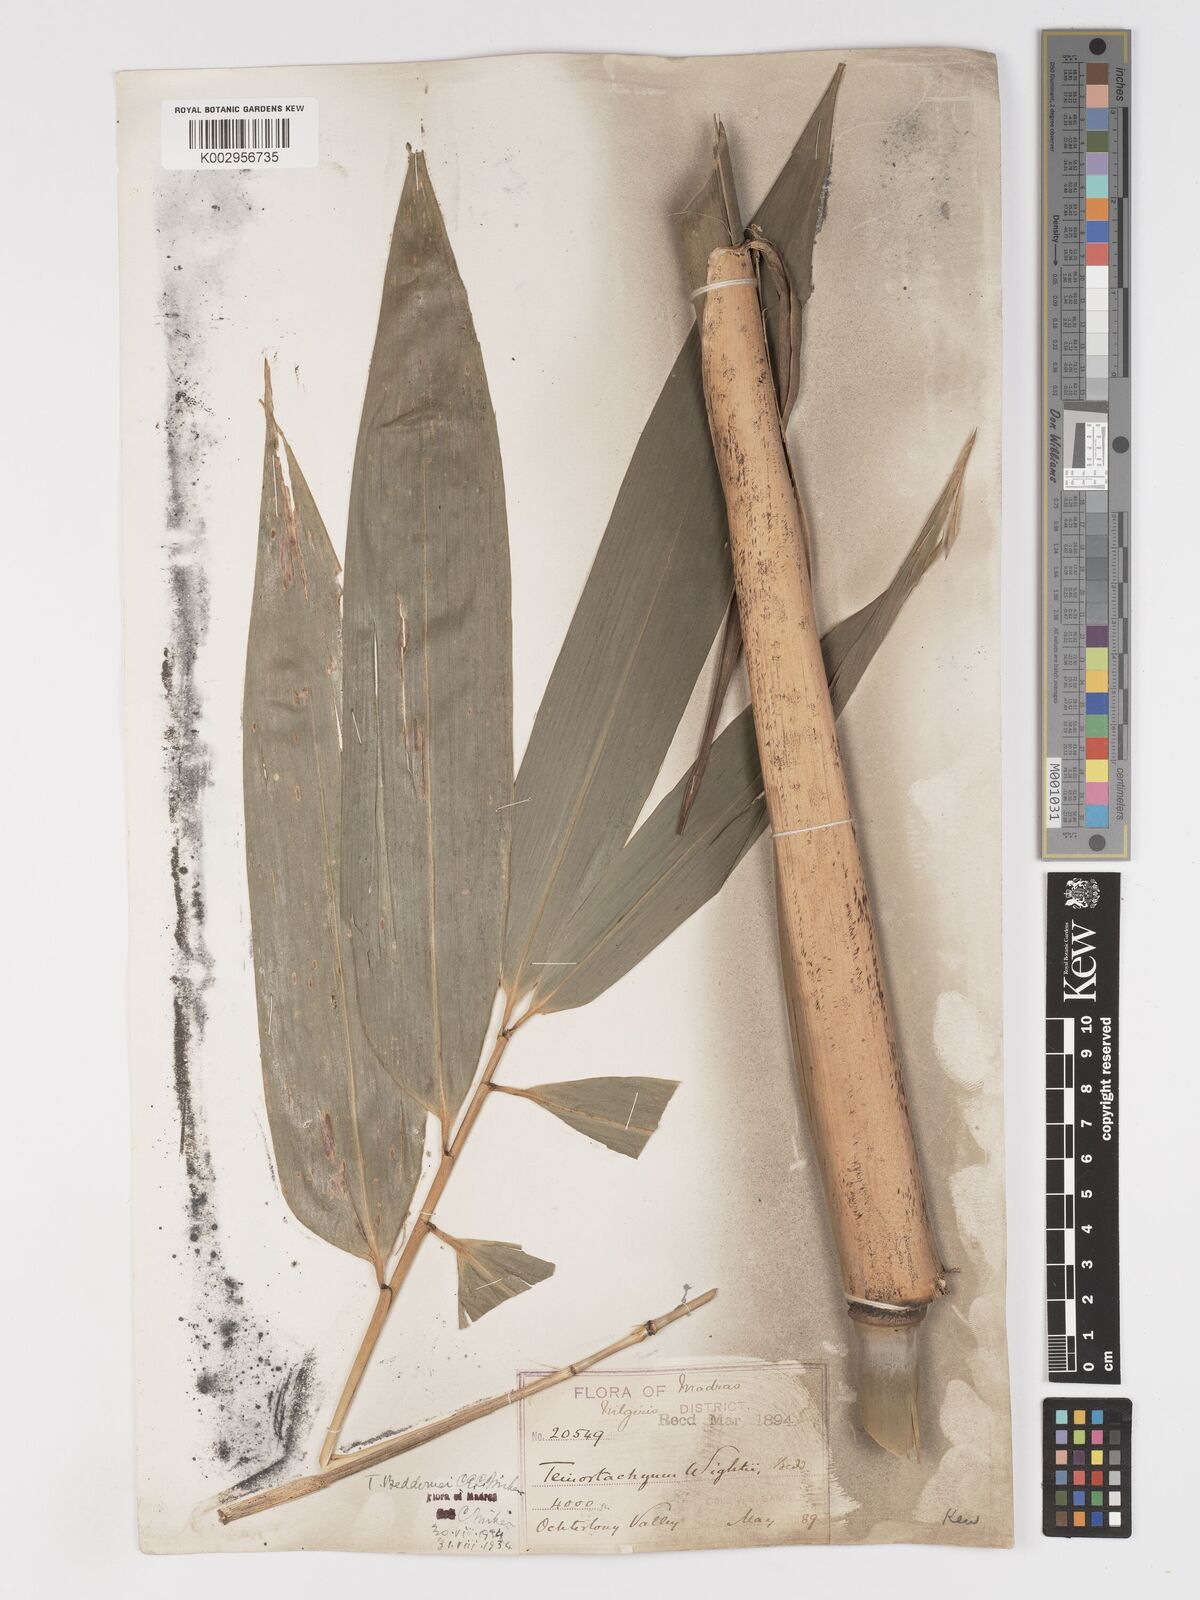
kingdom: Plantae
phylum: Tracheophyta
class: Liliopsida
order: Poales
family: Poaceae
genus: Schizostachyum
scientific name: Schizostachyum beddomei
